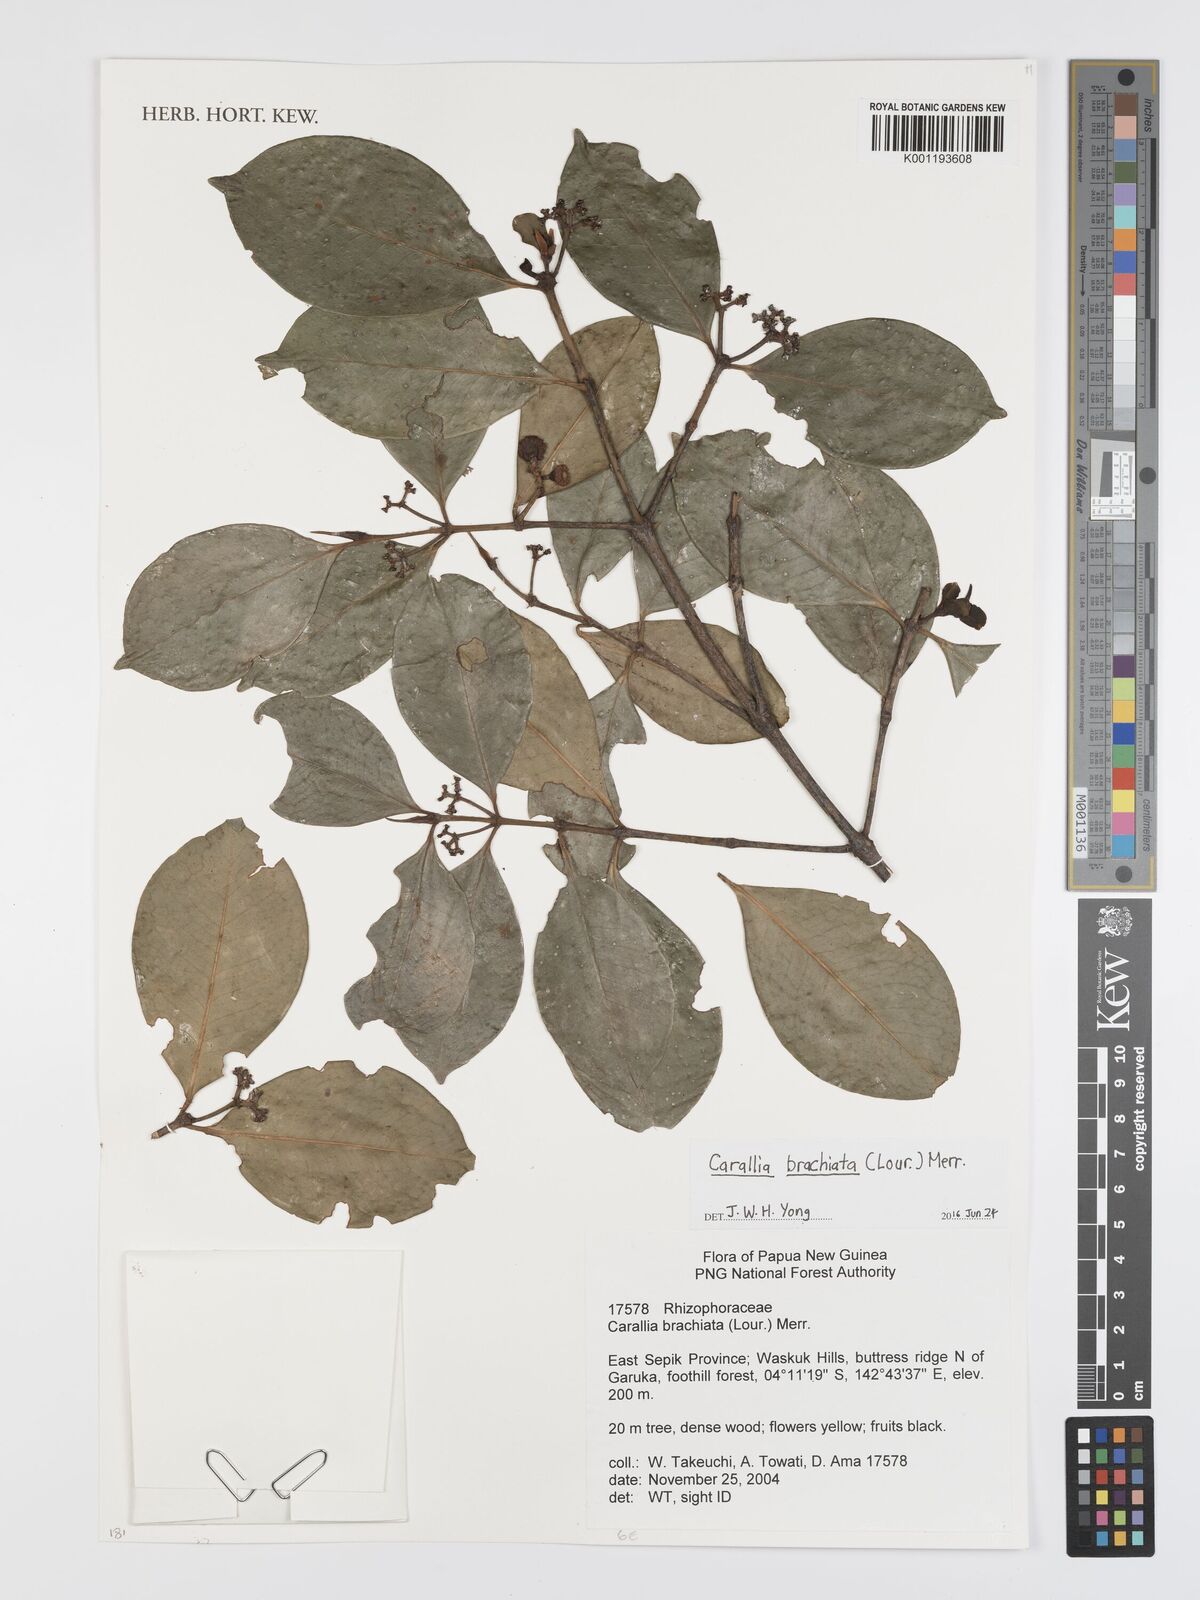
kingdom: Plantae
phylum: Tracheophyta
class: Magnoliopsida
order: Malpighiales
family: Rhizophoraceae
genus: Carallia
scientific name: Carallia brachiata
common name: Carallawood
